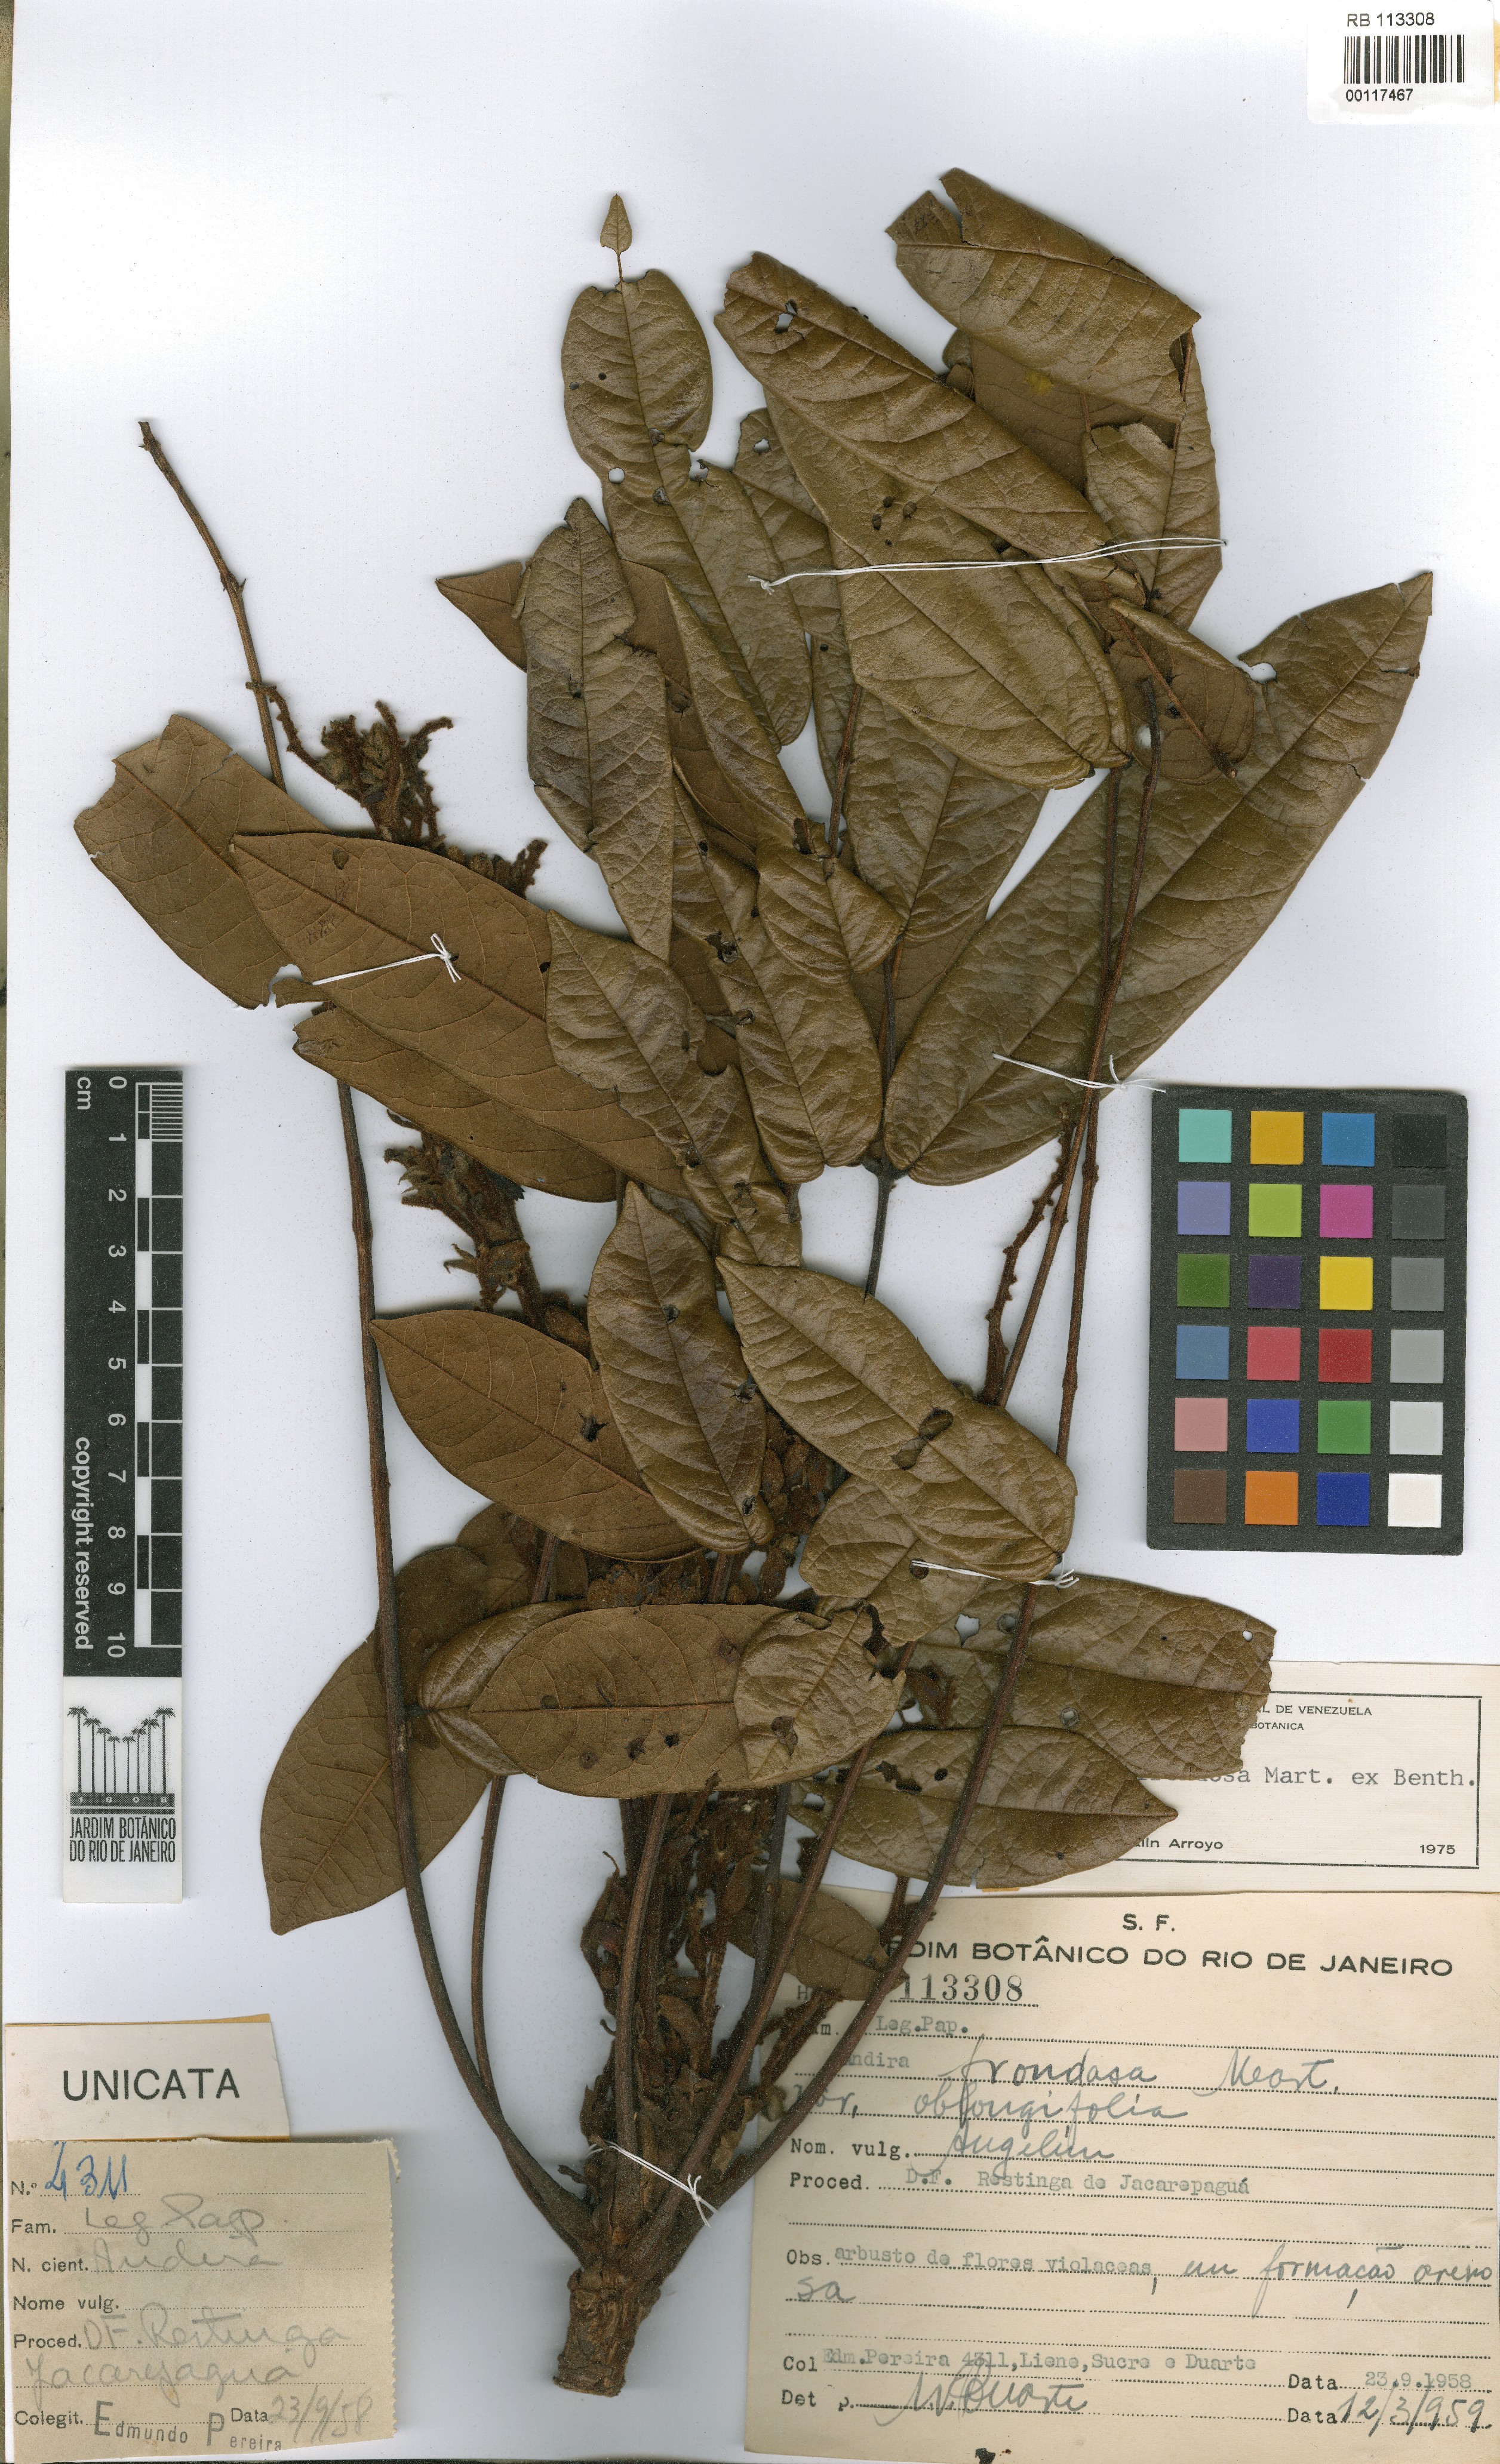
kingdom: Plantae
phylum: Tracheophyta
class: Magnoliopsida
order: Fabales
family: Fabaceae
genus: Andira
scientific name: Andira anthelmia
